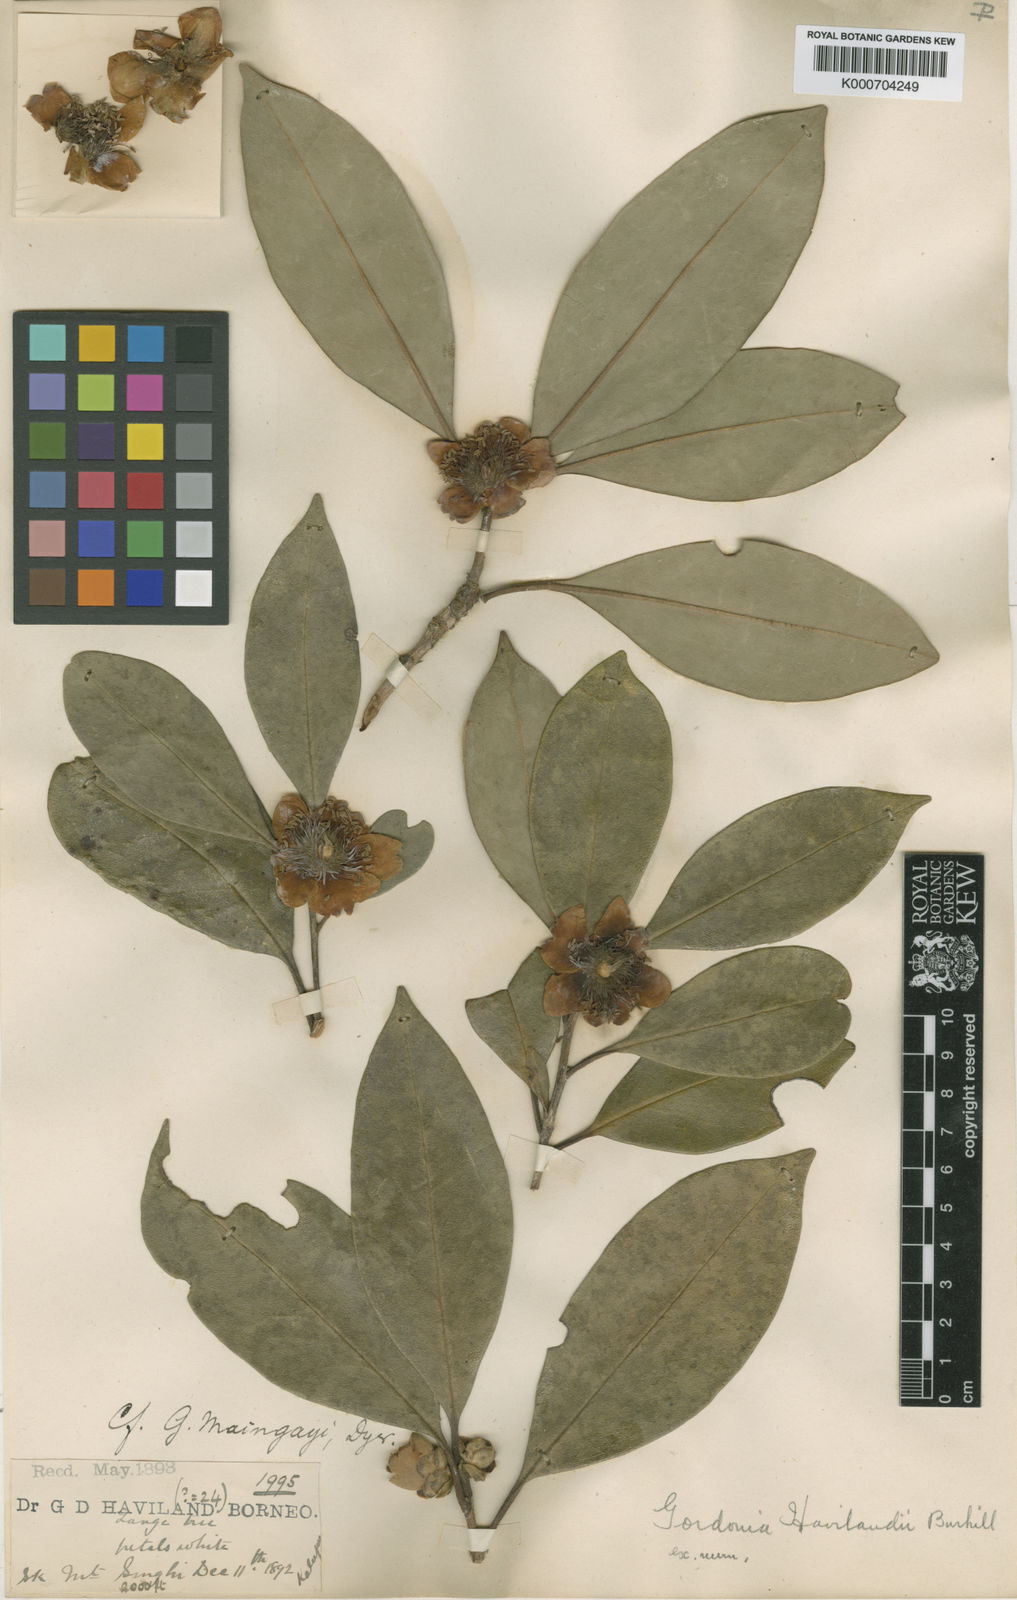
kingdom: Plantae
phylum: Tracheophyta
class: Magnoliopsida
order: Ericales
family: Theaceae
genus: Polyspora
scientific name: Polyspora havilandii
